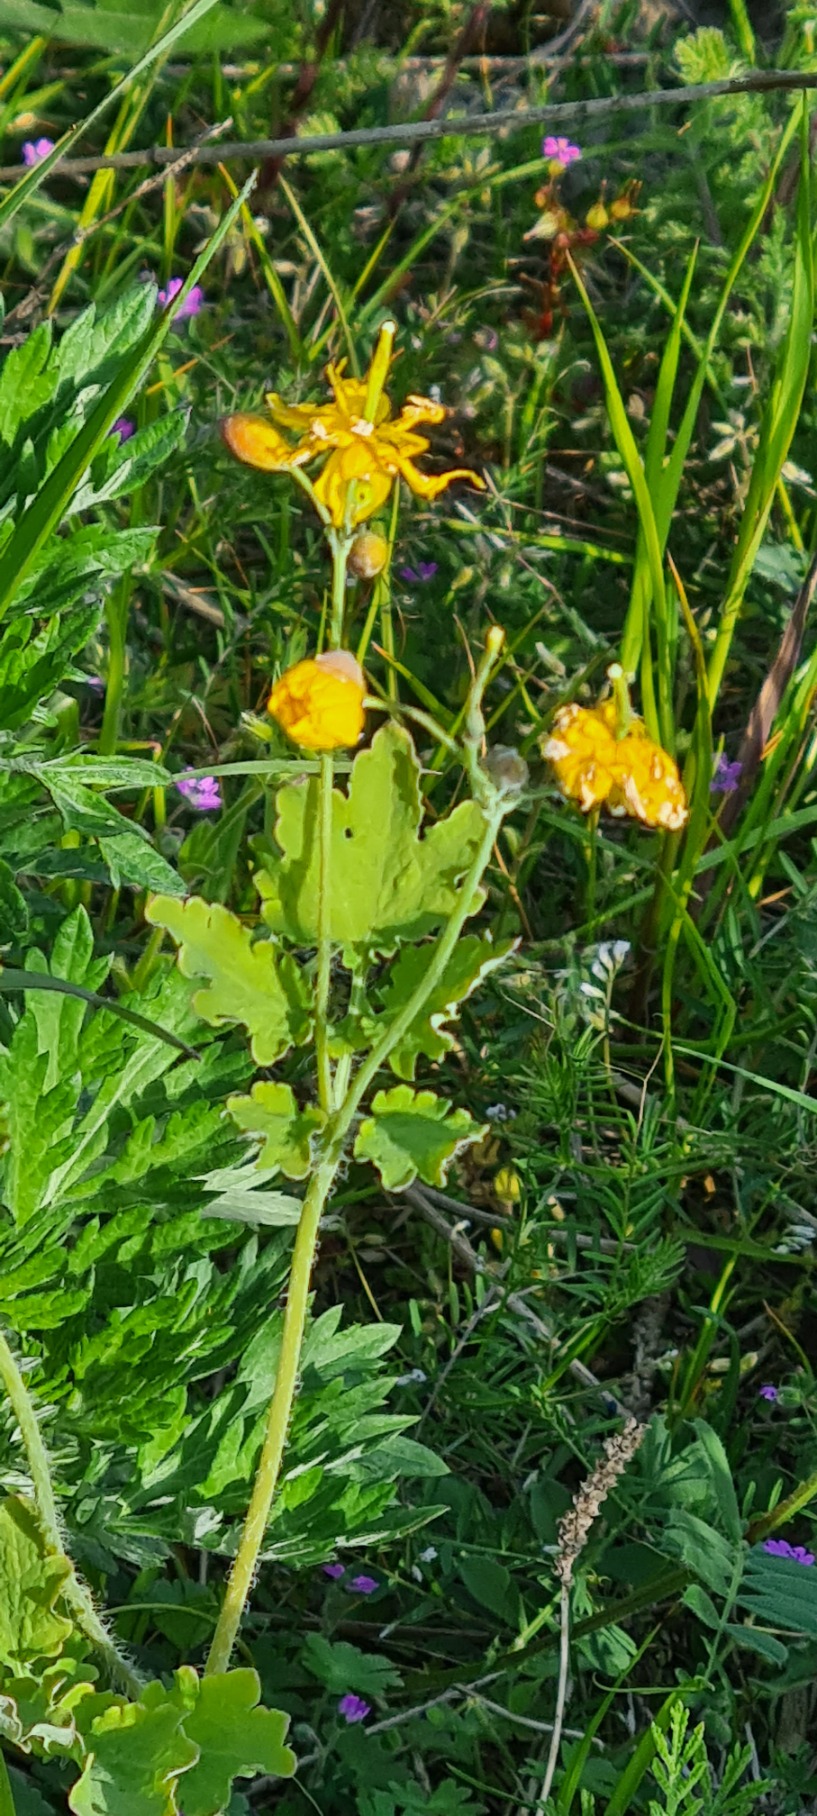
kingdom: Plantae
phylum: Tracheophyta
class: Magnoliopsida
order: Ranunculales
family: Papaveraceae
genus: Chelidonium
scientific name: Chelidonium majus
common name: Svaleurt
